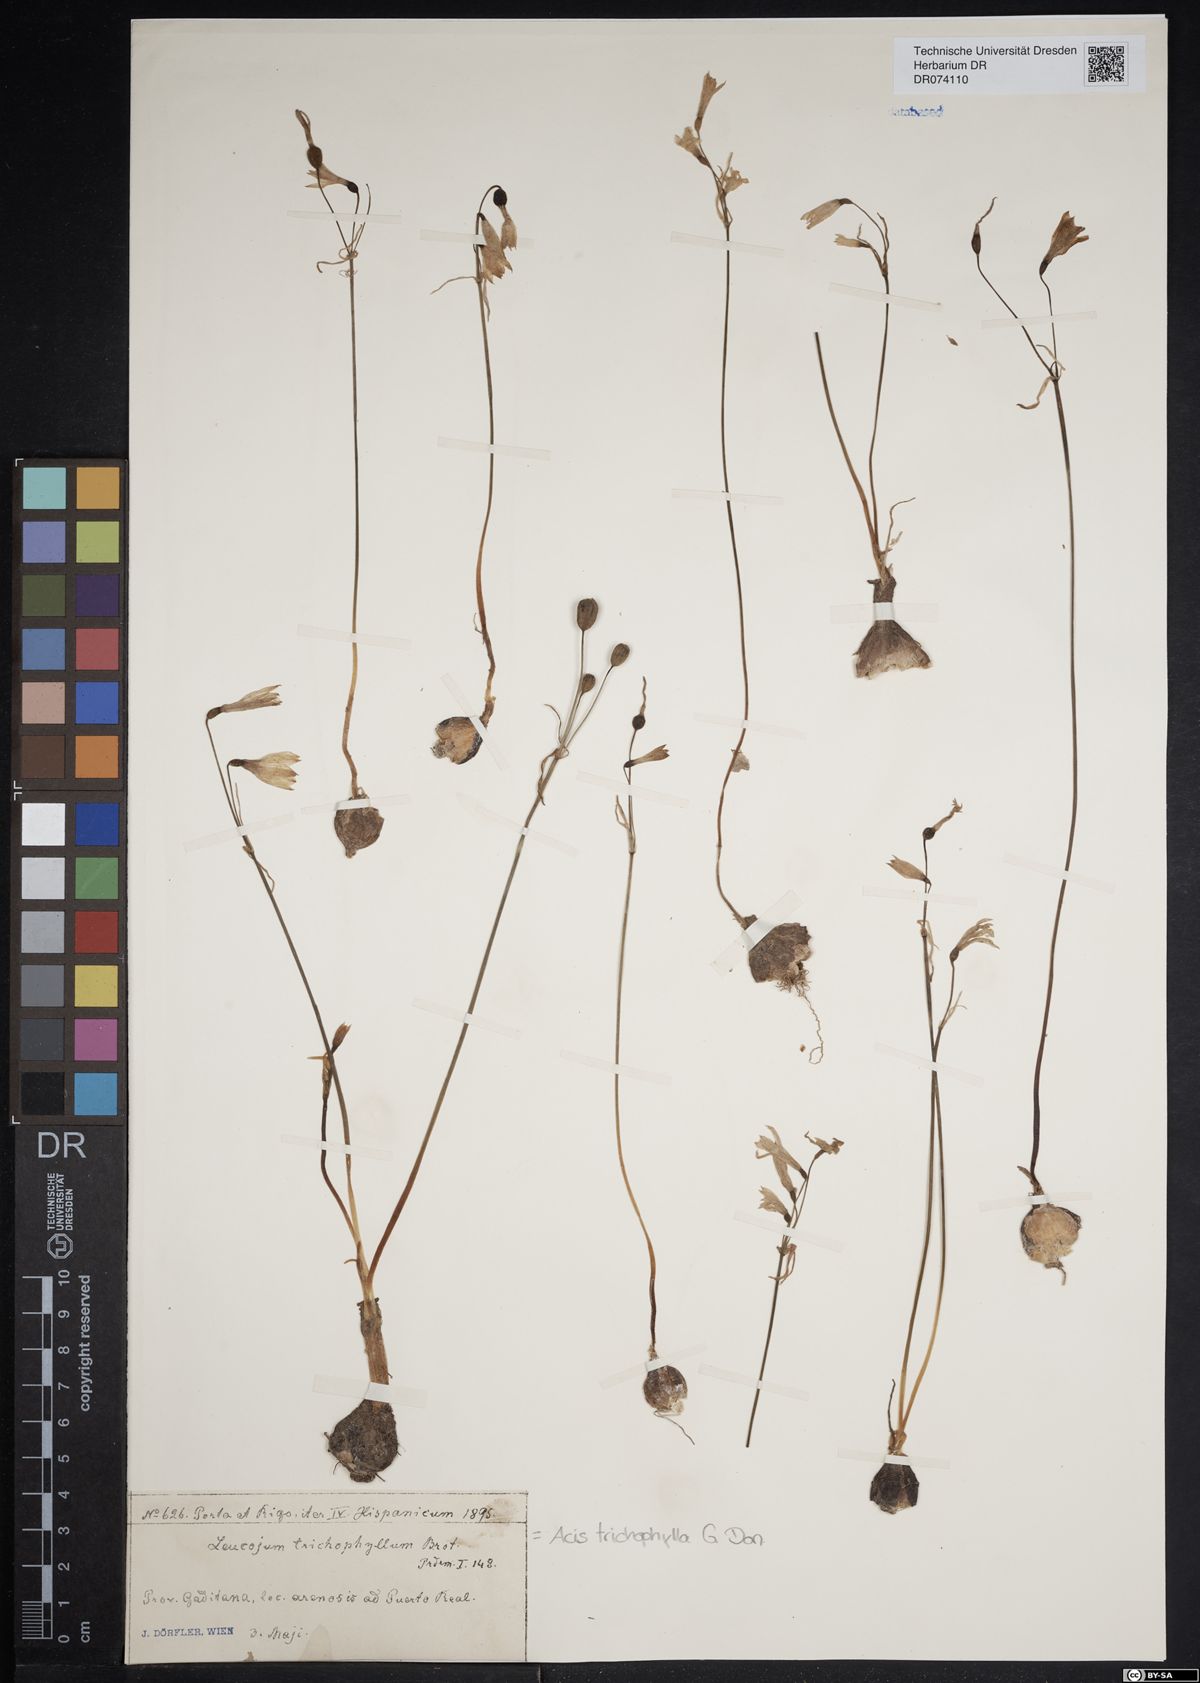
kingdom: Plantae
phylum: Tracheophyta
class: Liliopsida
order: Asparagales
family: Amaryllidaceae
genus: Acis
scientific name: Acis trichophylla
